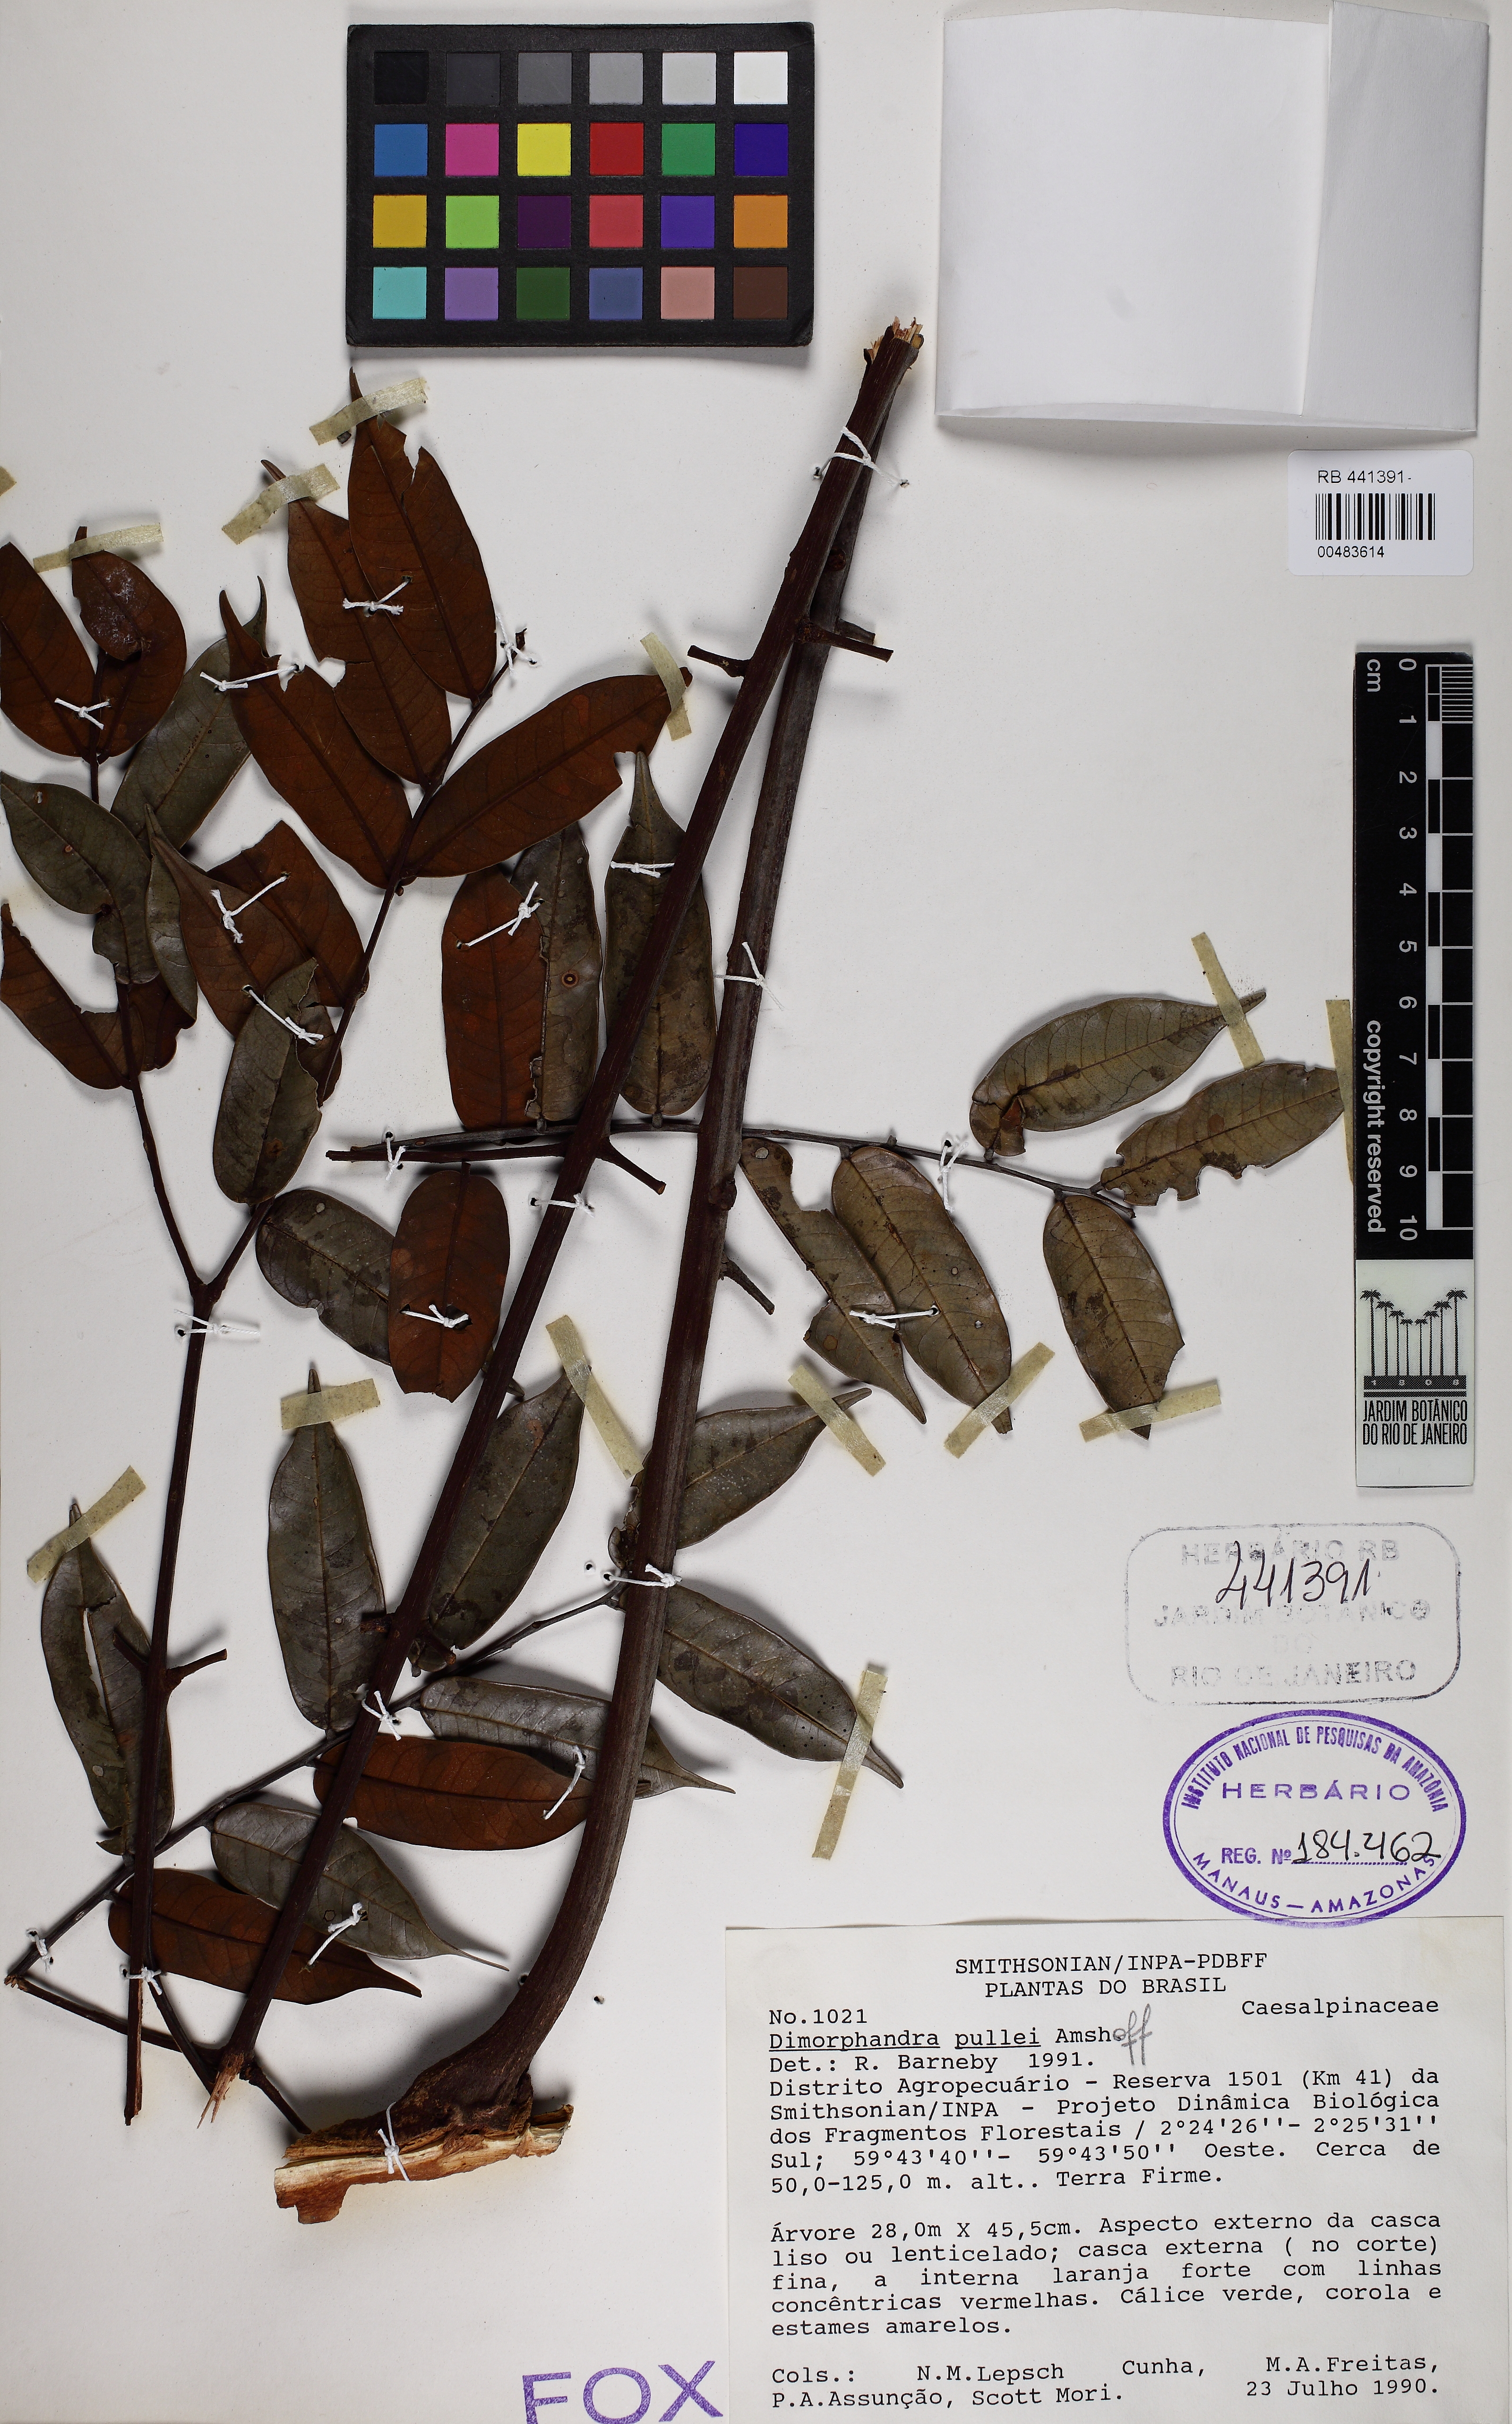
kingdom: Plantae
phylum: Tracheophyta
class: Magnoliopsida
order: Fabales
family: Fabaceae
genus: Dimorphandra
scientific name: Dimorphandra caudata
